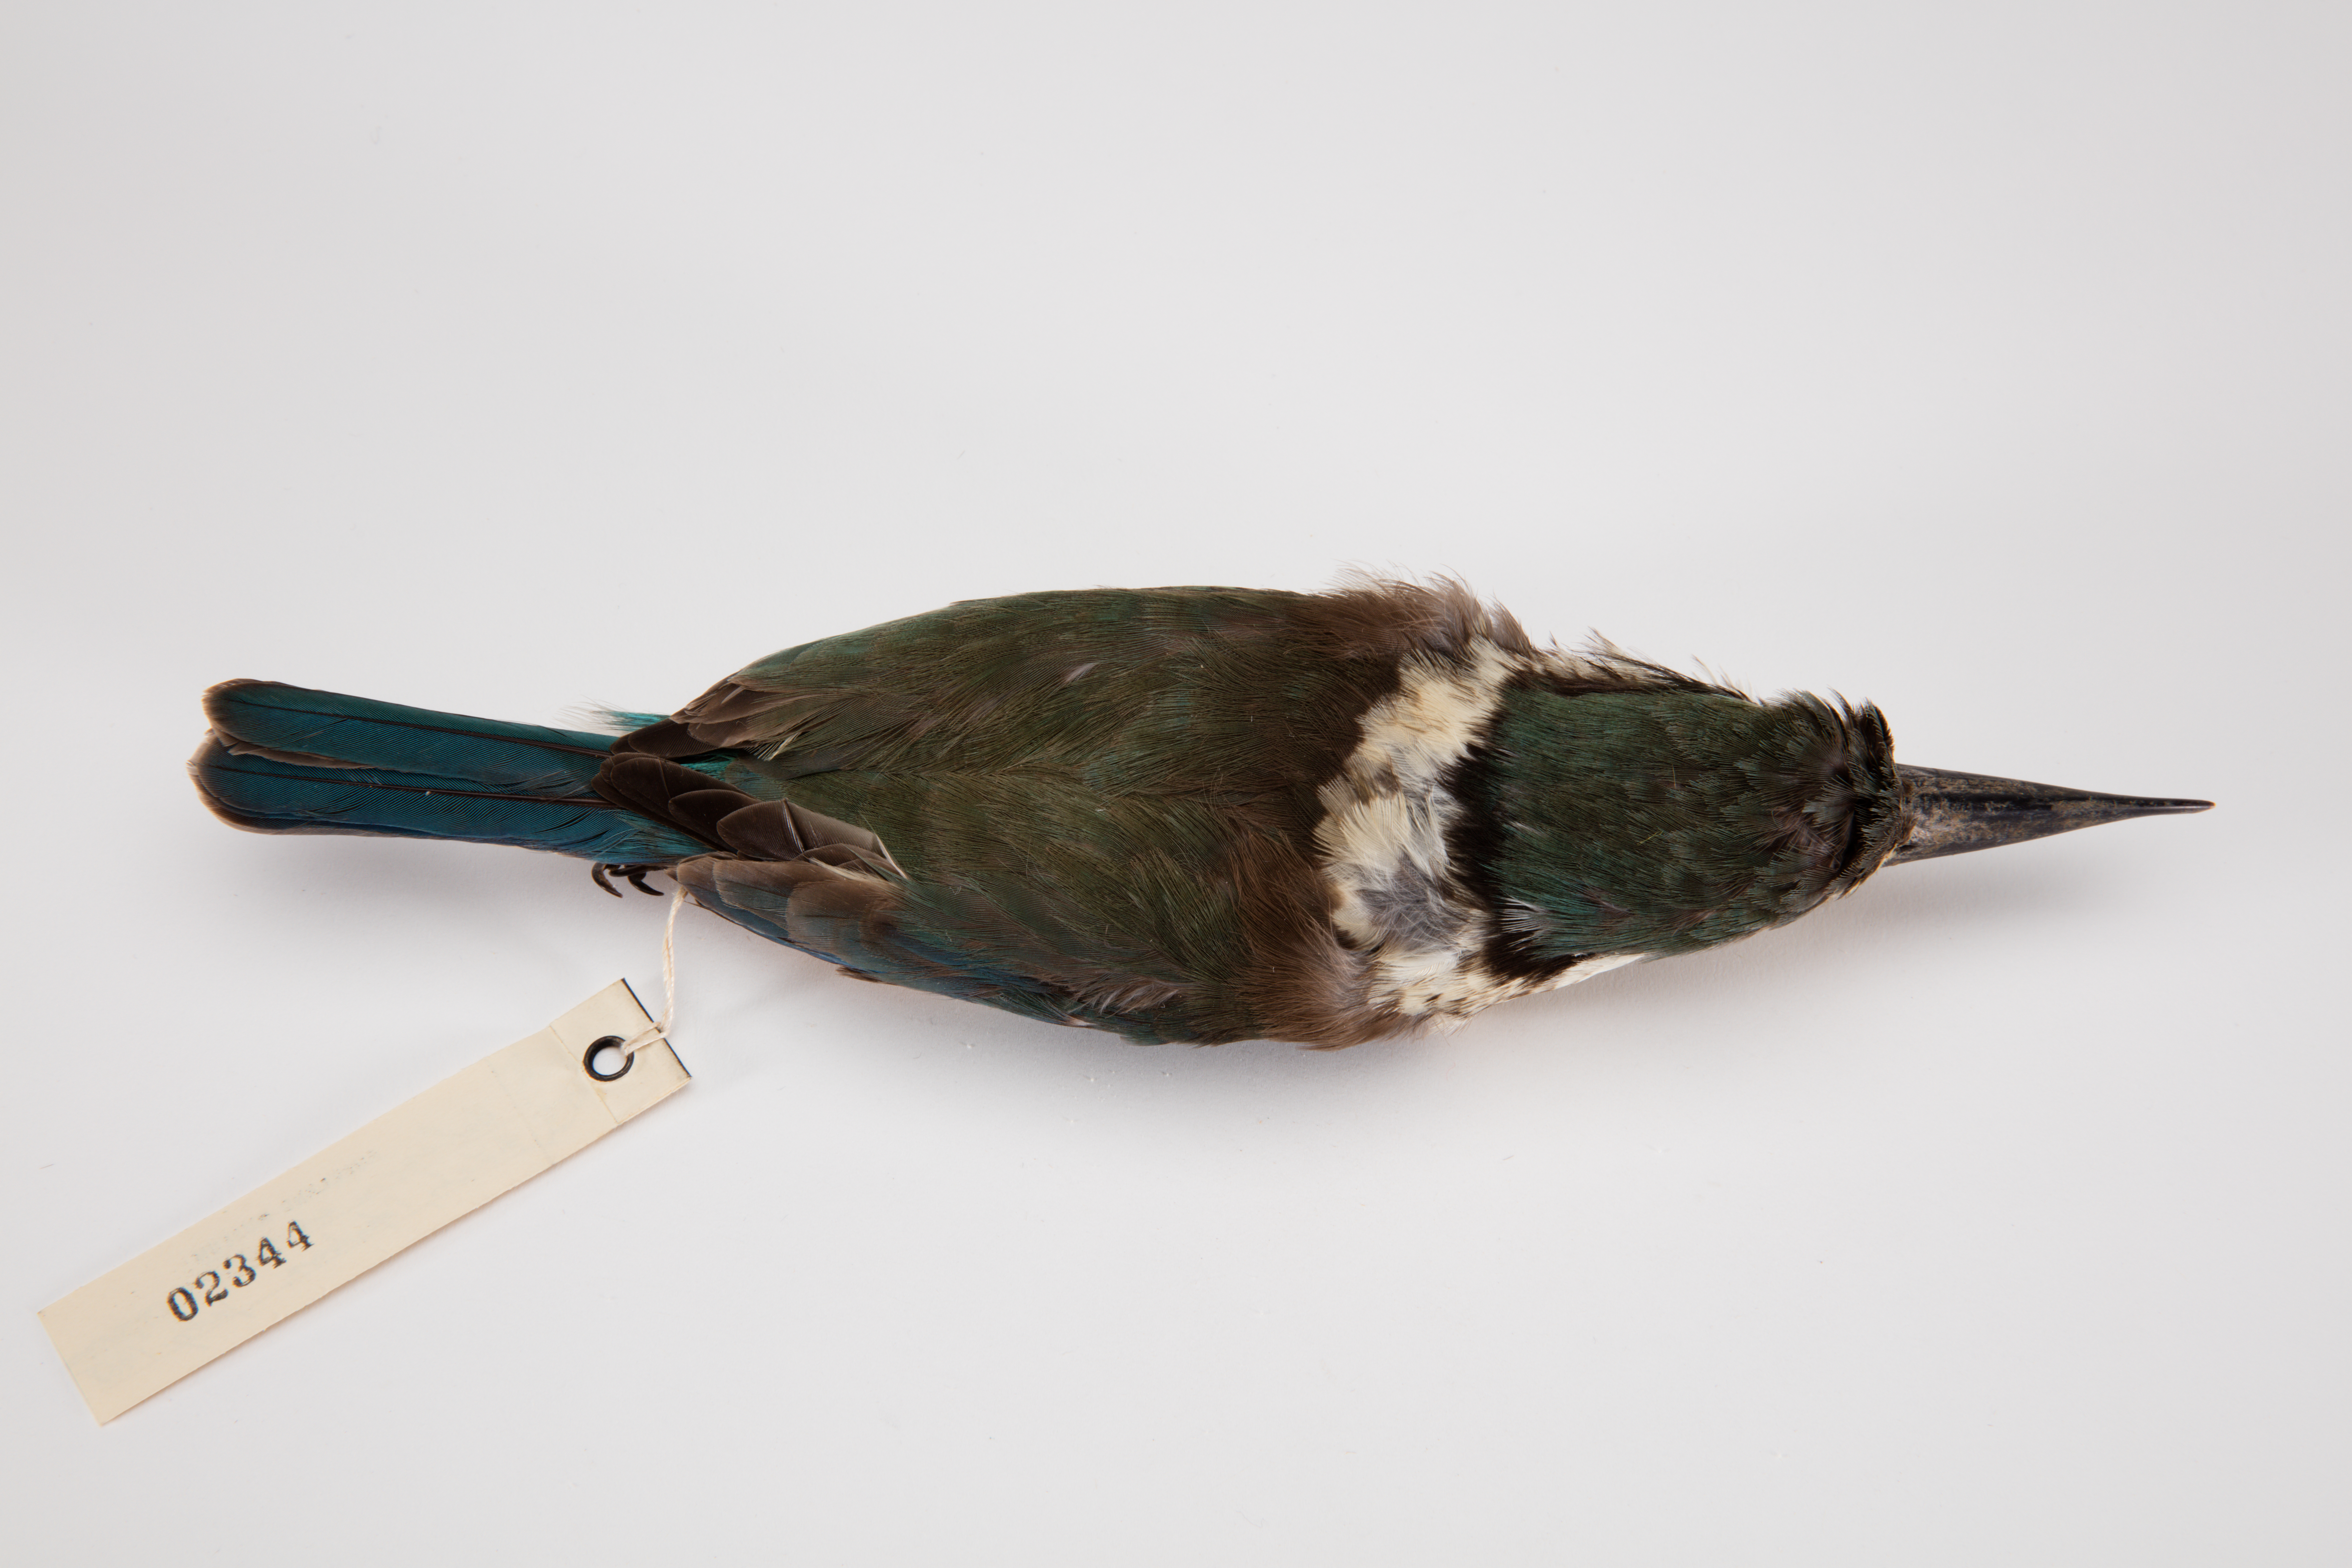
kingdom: Animalia
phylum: Chordata
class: Aves
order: Coraciiformes
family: Alcedinidae
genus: Todiramphus
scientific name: Todiramphus sanctus
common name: Sacred kingfisher
